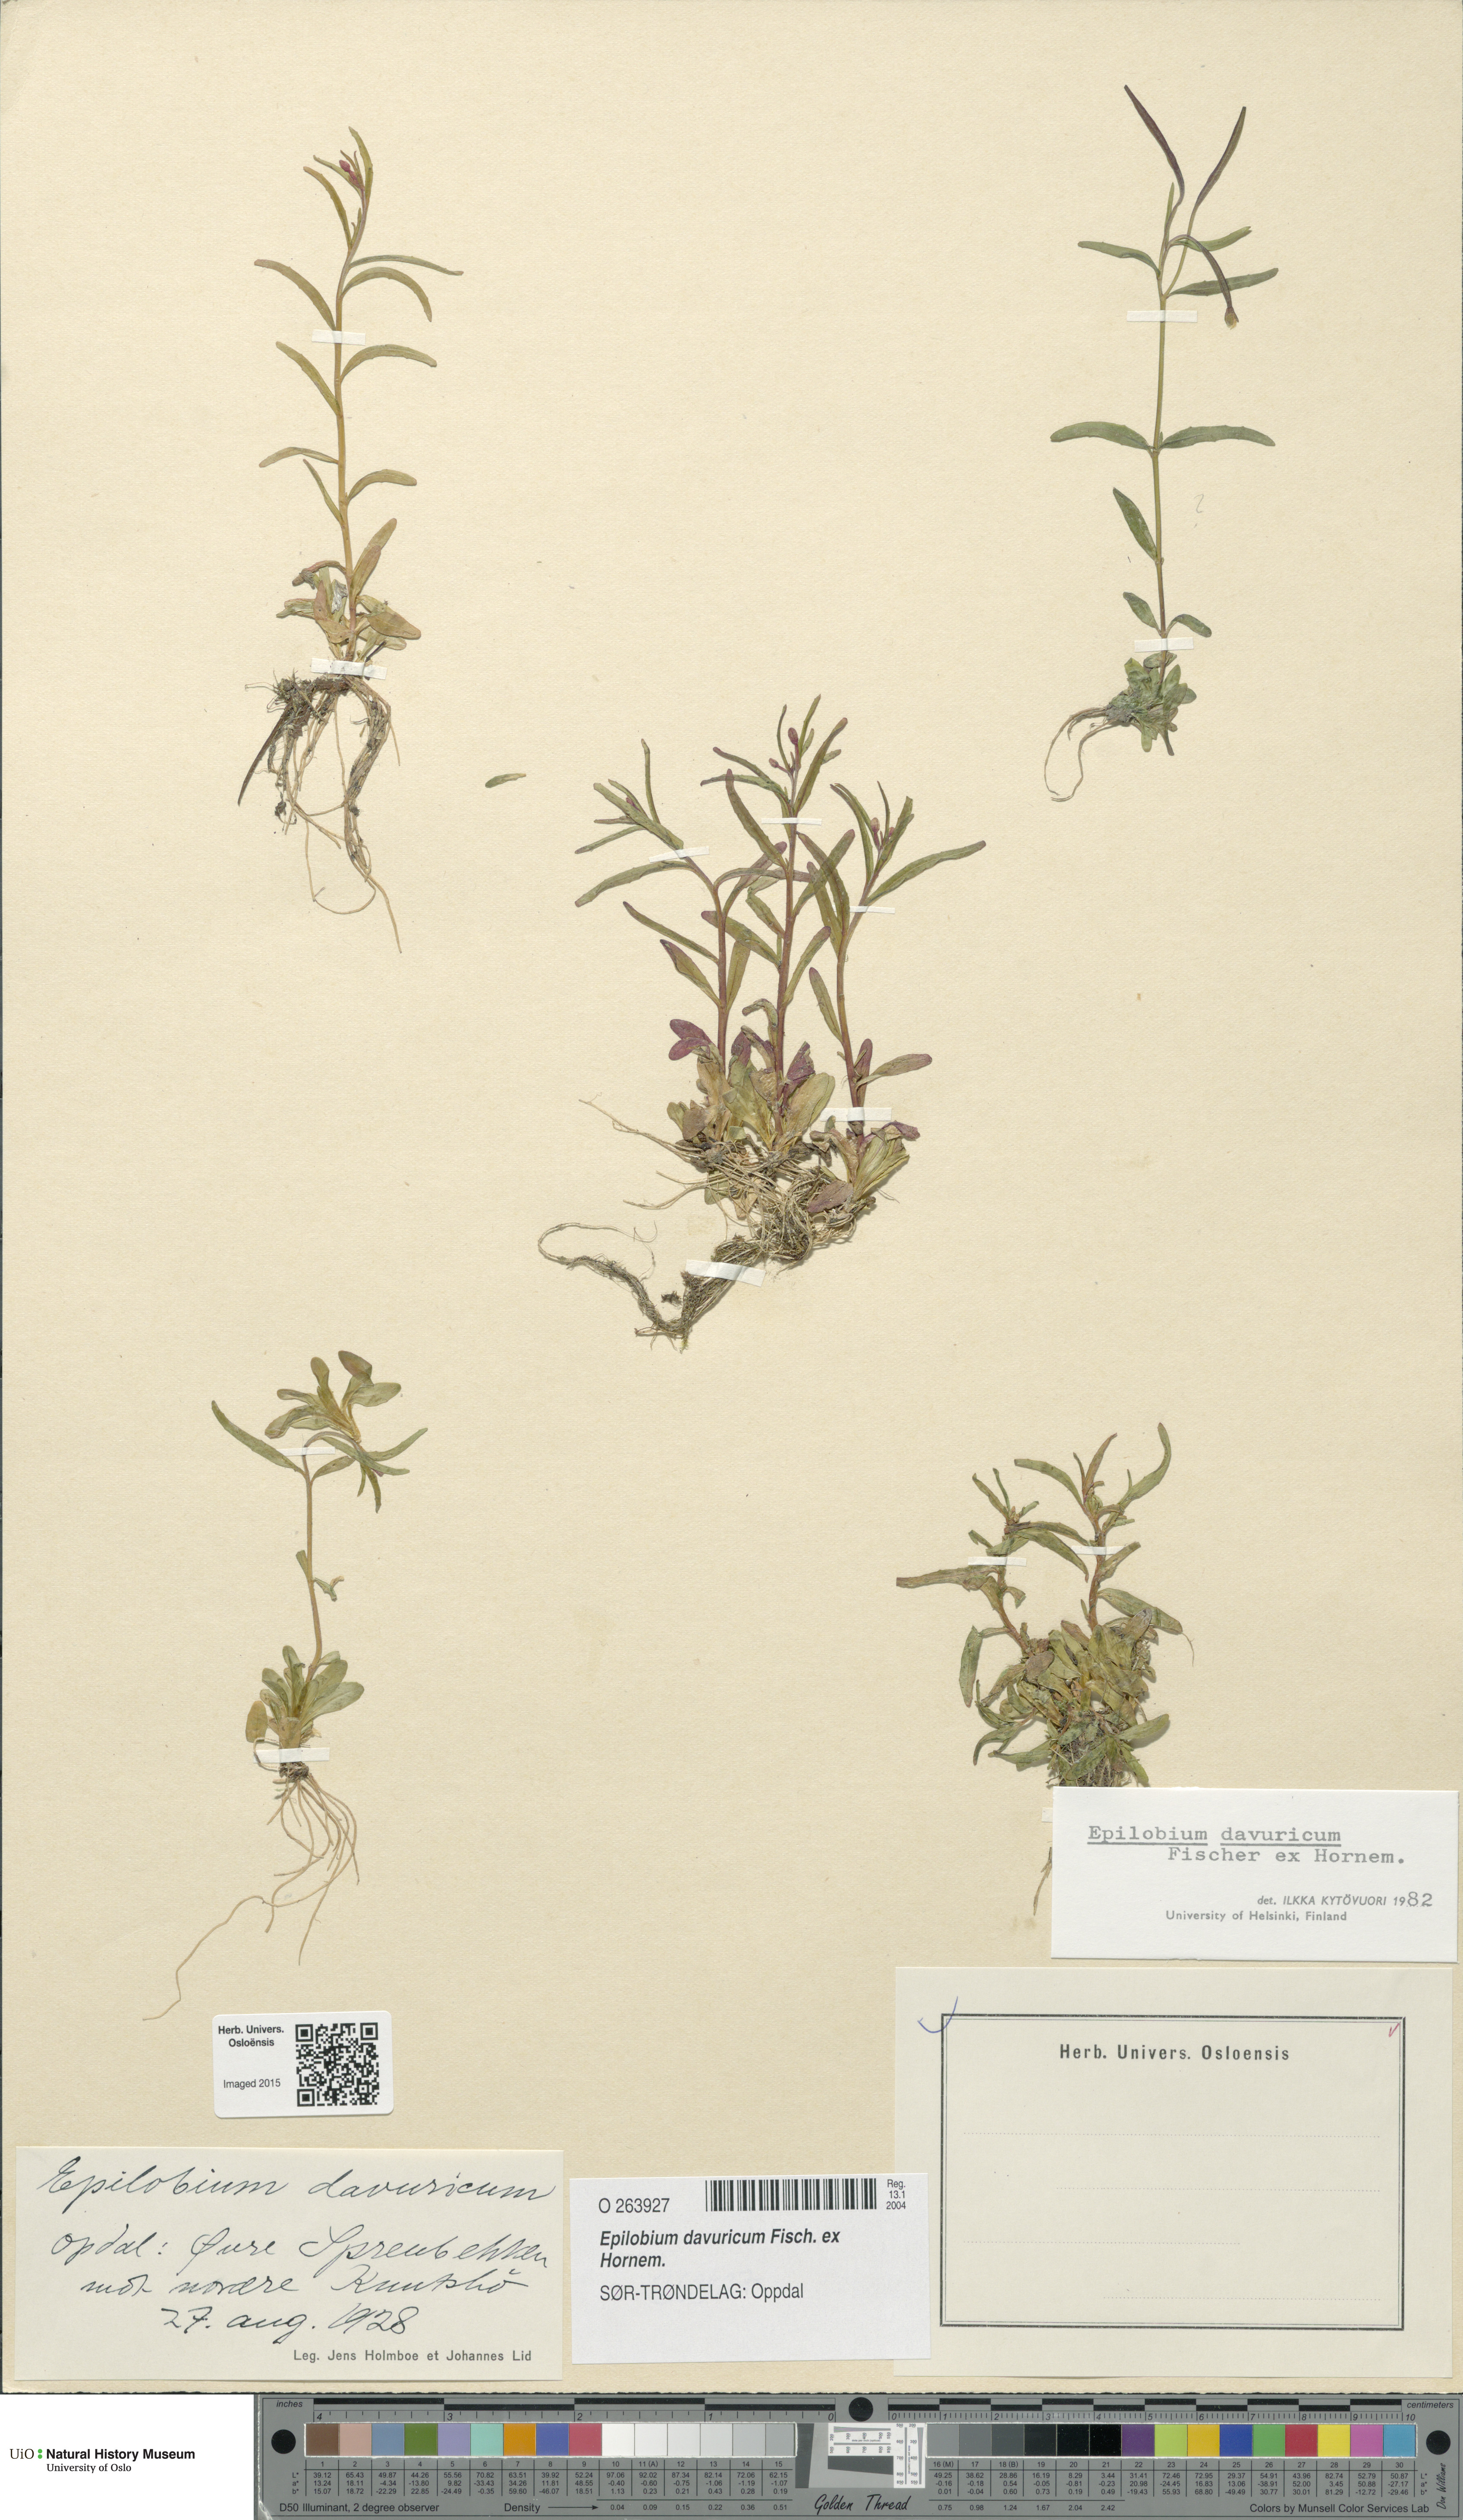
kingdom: Plantae
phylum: Tracheophyta
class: Magnoliopsida
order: Myrtales
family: Onagraceae
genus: Epilobium
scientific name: Epilobium davuricum
